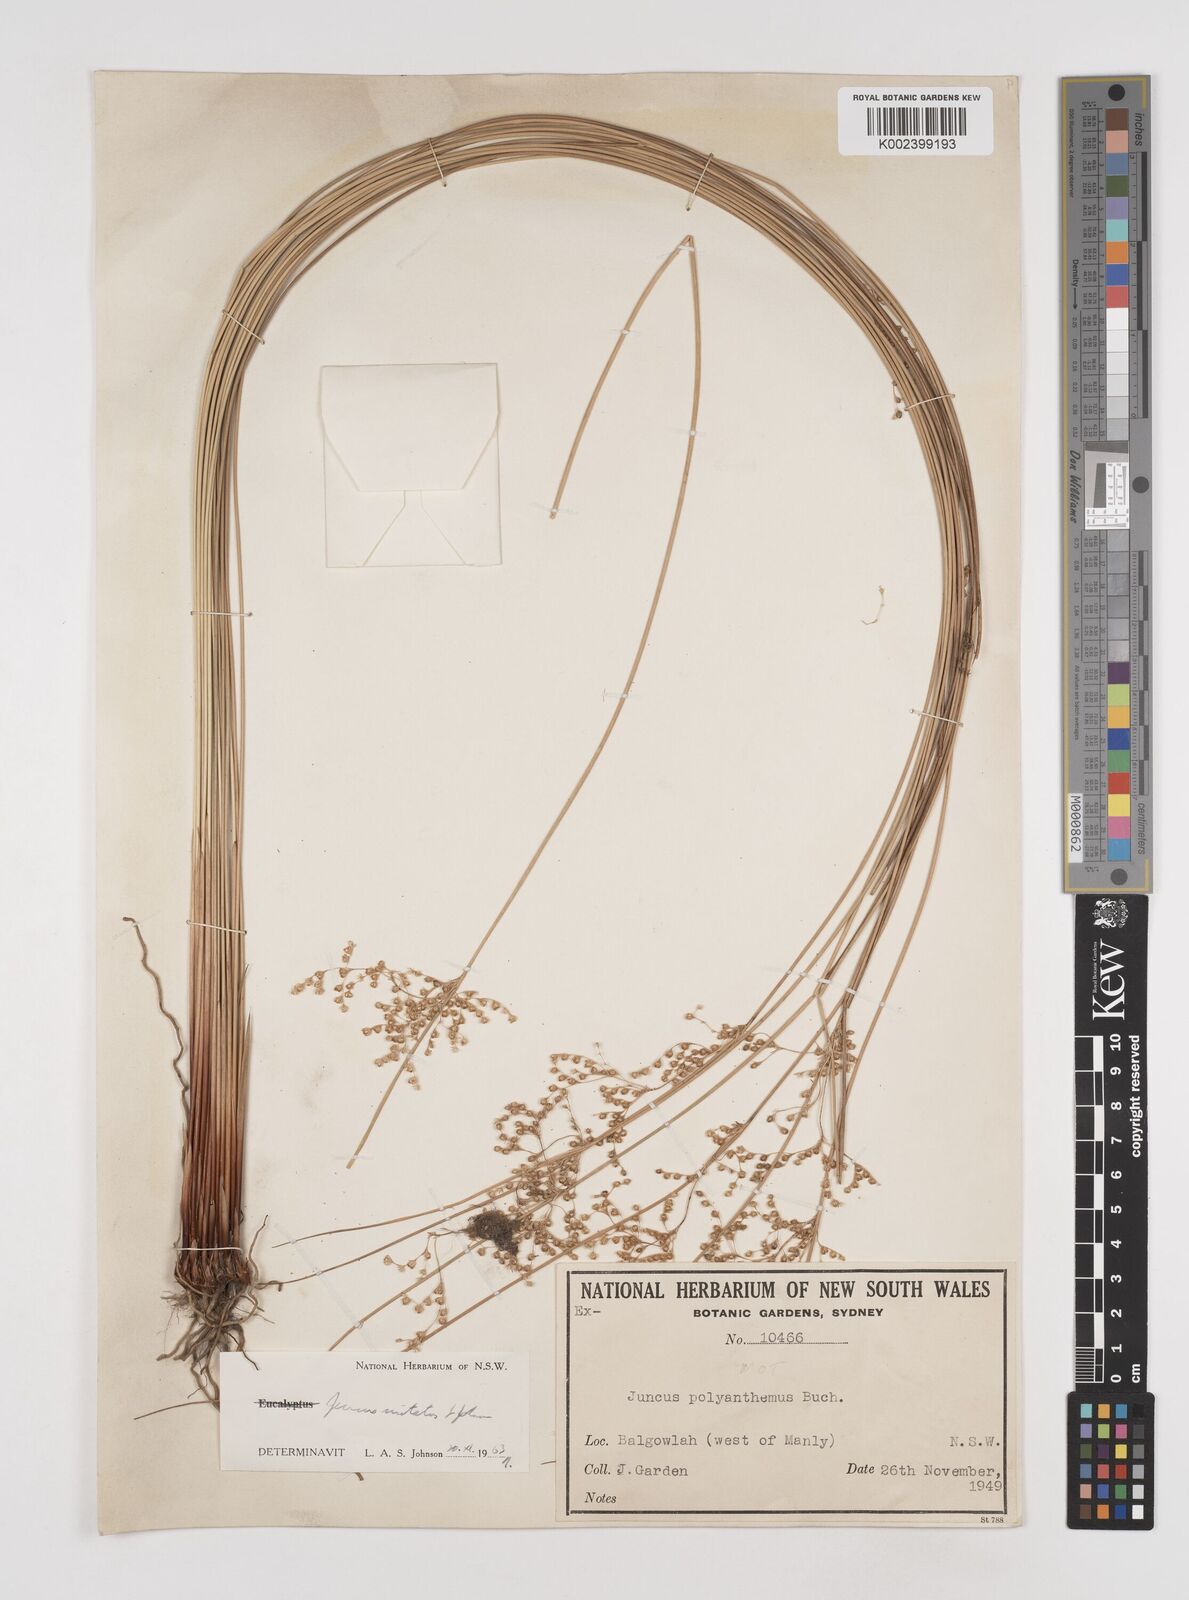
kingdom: Plantae
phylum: Tracheophyta
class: Liliopsida
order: Poales
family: Juncaceae
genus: Juncus
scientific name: Juncus usitatus
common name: Rush
